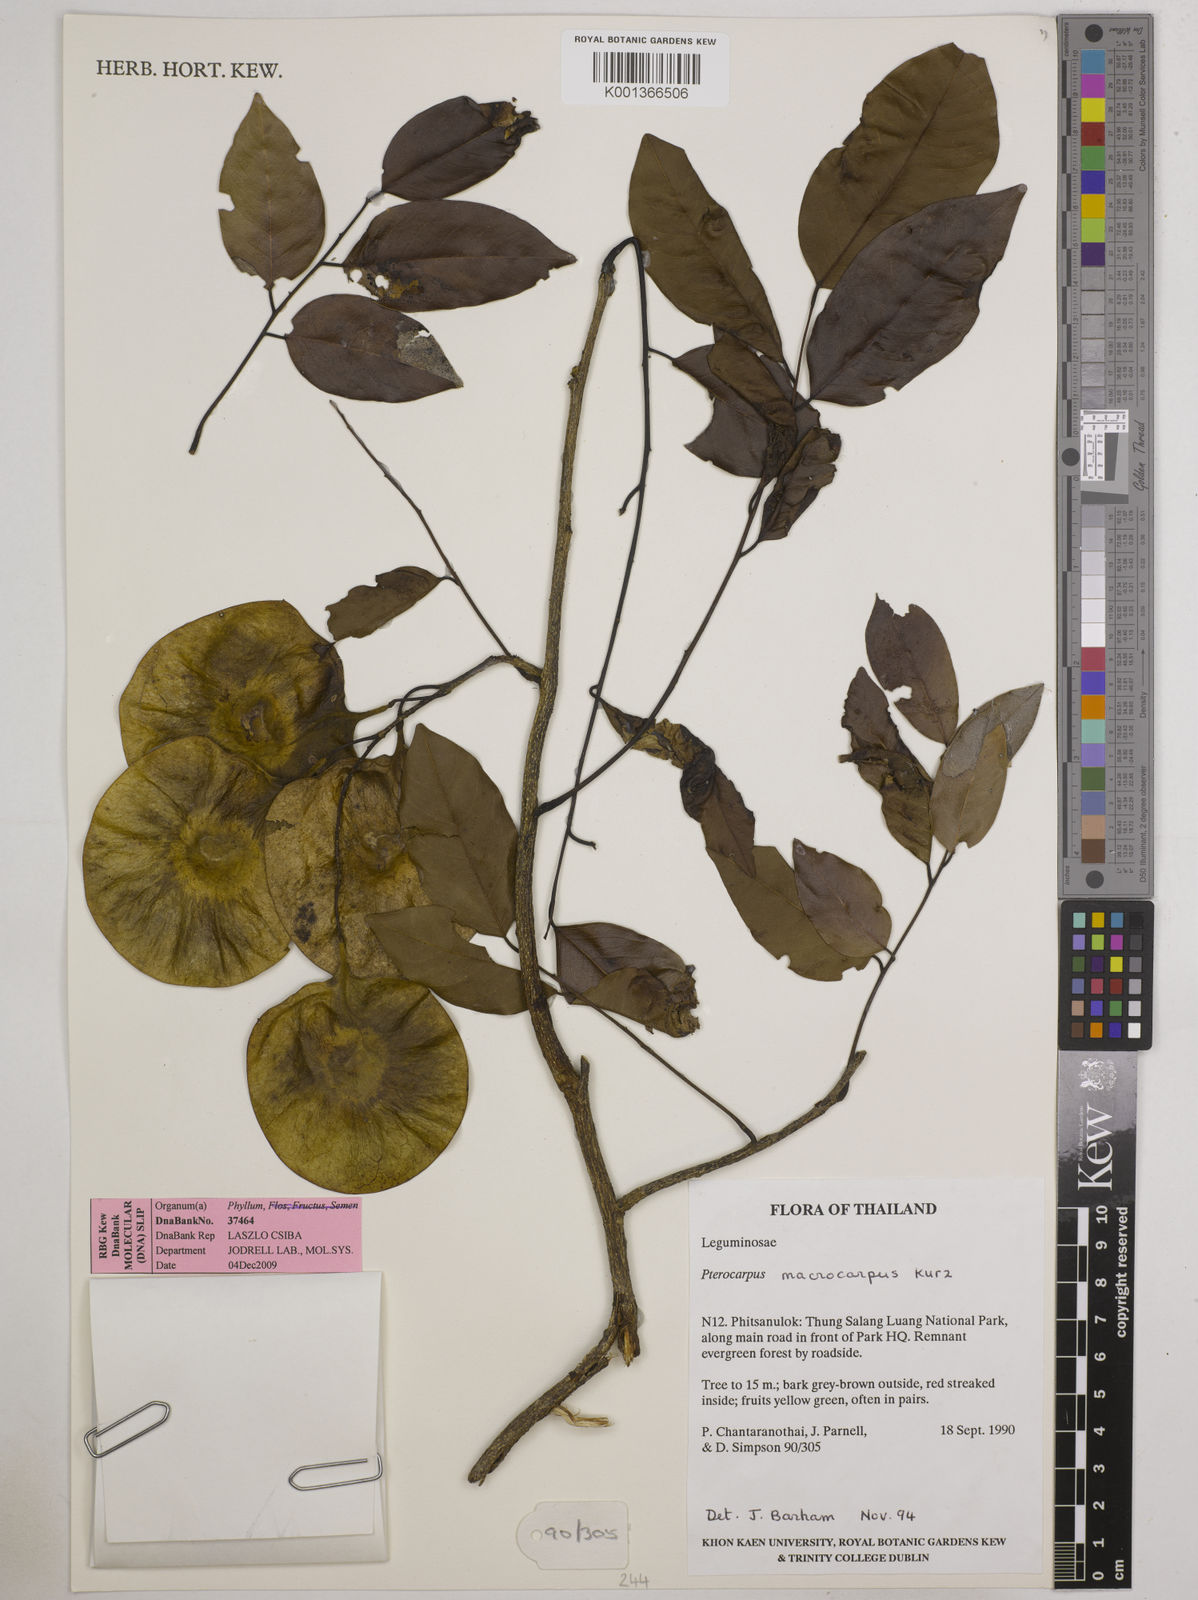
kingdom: Plantae
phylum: Tracheophyta
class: Magnoliopsida
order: Fabales
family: Fabaceae
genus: Pterocarpus
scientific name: Pterocarpus macrocarpus
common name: Burma padauk
